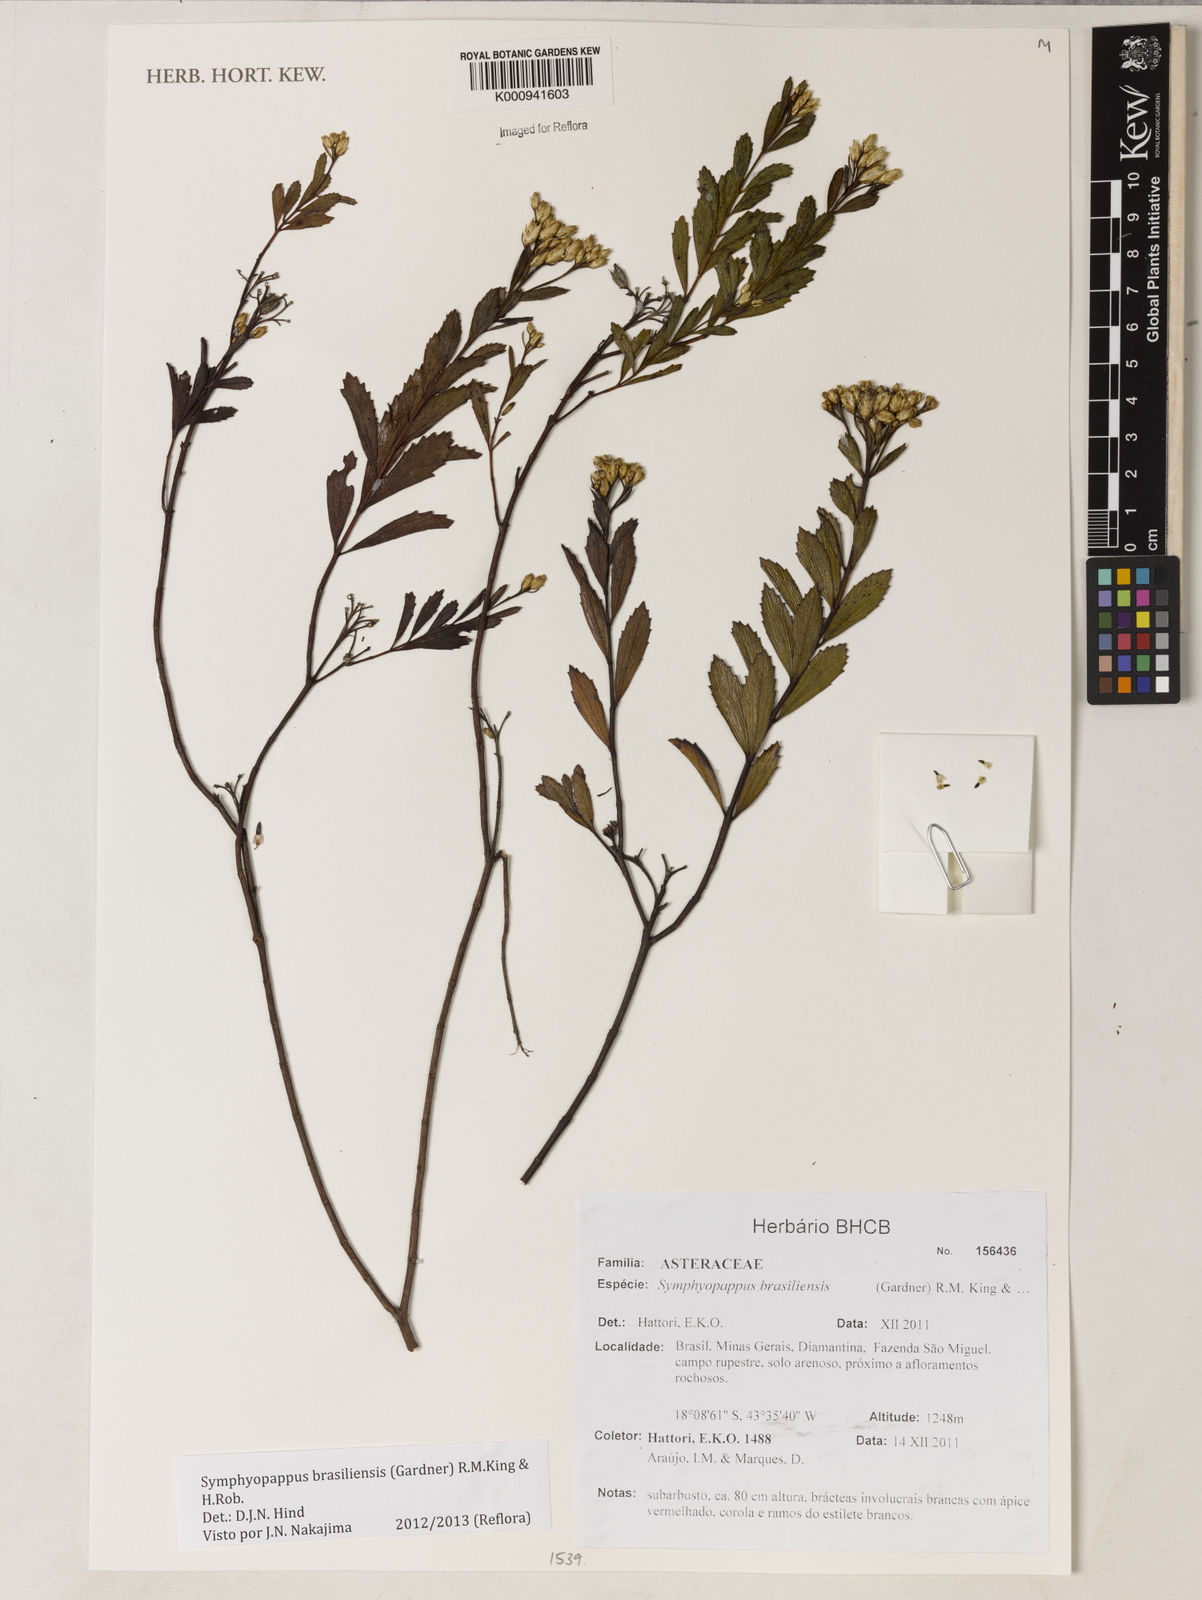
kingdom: Plantae
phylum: Tracheophyta
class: Magnoliopsida
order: Asterales
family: Asteraceae
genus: Symphyopappus
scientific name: Symphyopappus brasiliensis
